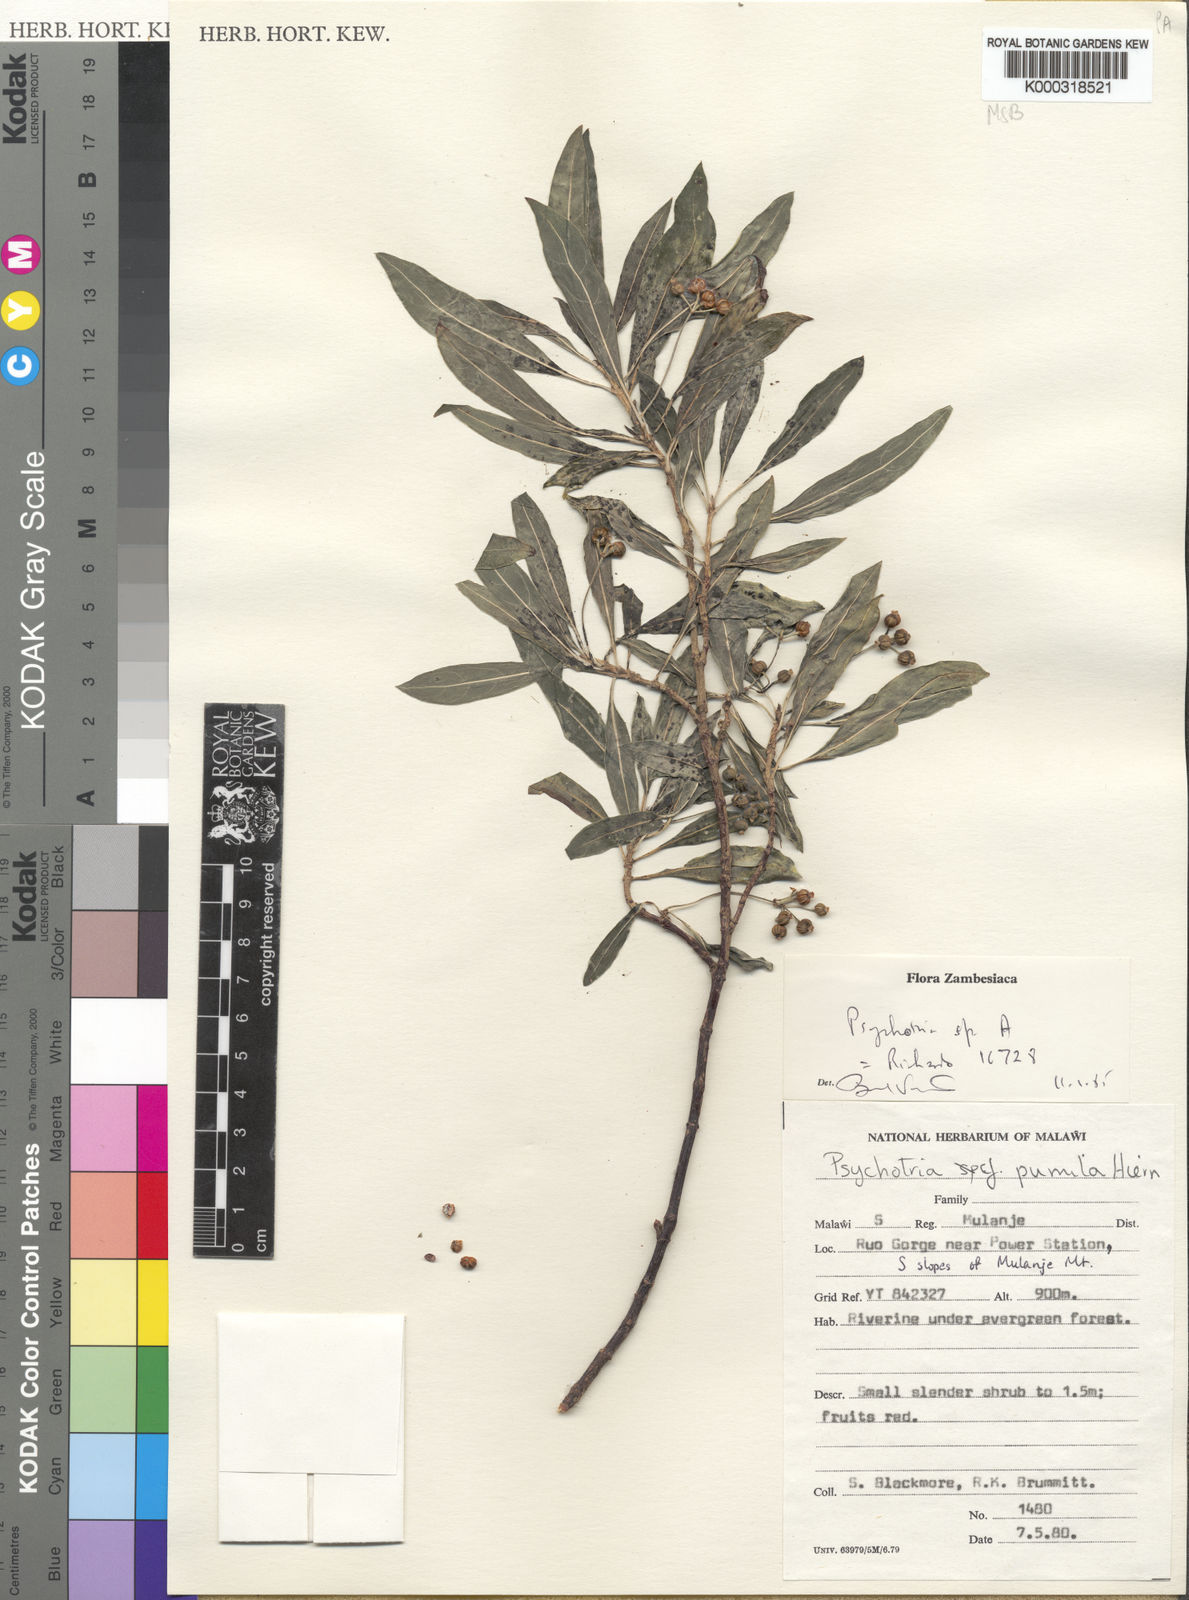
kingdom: Plantae
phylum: Tracheophyta
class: Magnoliopsida
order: Gentianales
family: Rubiaceae
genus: Psychotria
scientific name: Psychotria
